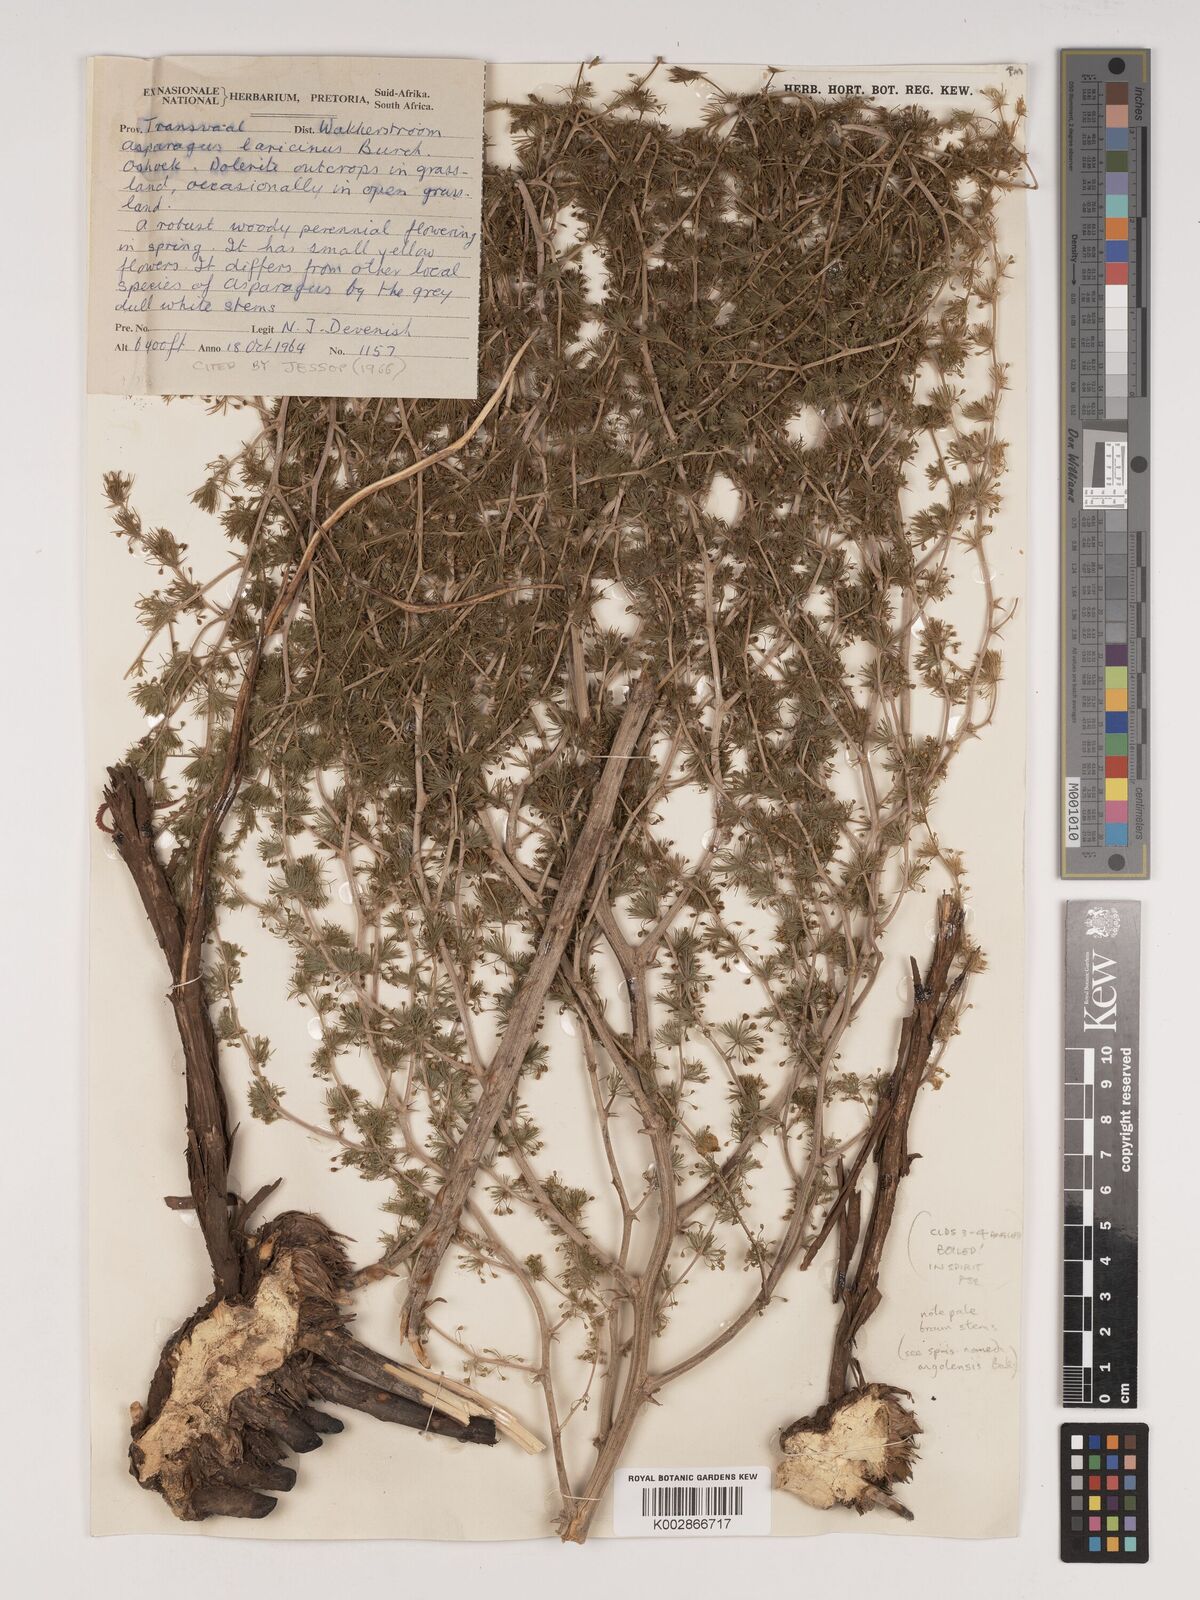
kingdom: Plantae
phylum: Tracheophyta
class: Liliopsida
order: Asparagales
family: Asparagaceae
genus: Asparagus
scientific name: Asparagus laricinus
